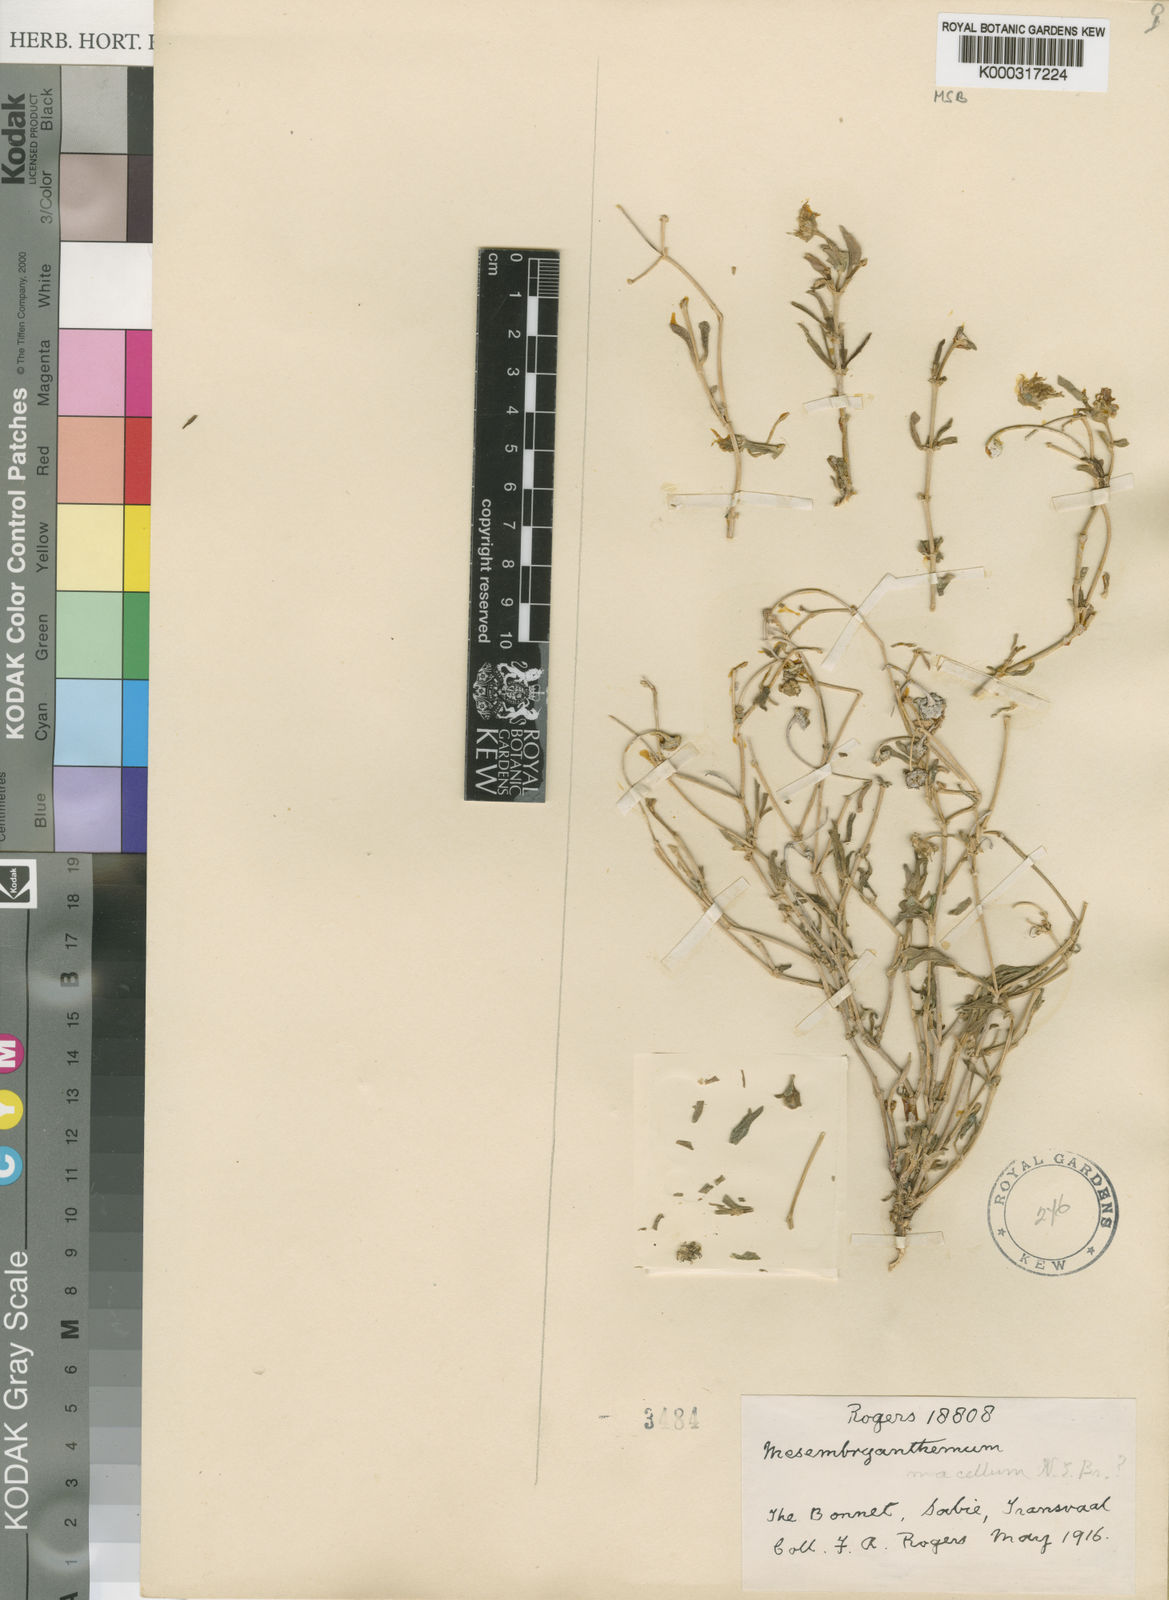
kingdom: Plantae
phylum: Tracheophyta
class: Magnoliopsida
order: Caryophyllales
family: Aizoaceae
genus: Delosperma
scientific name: Delosperma macellum
